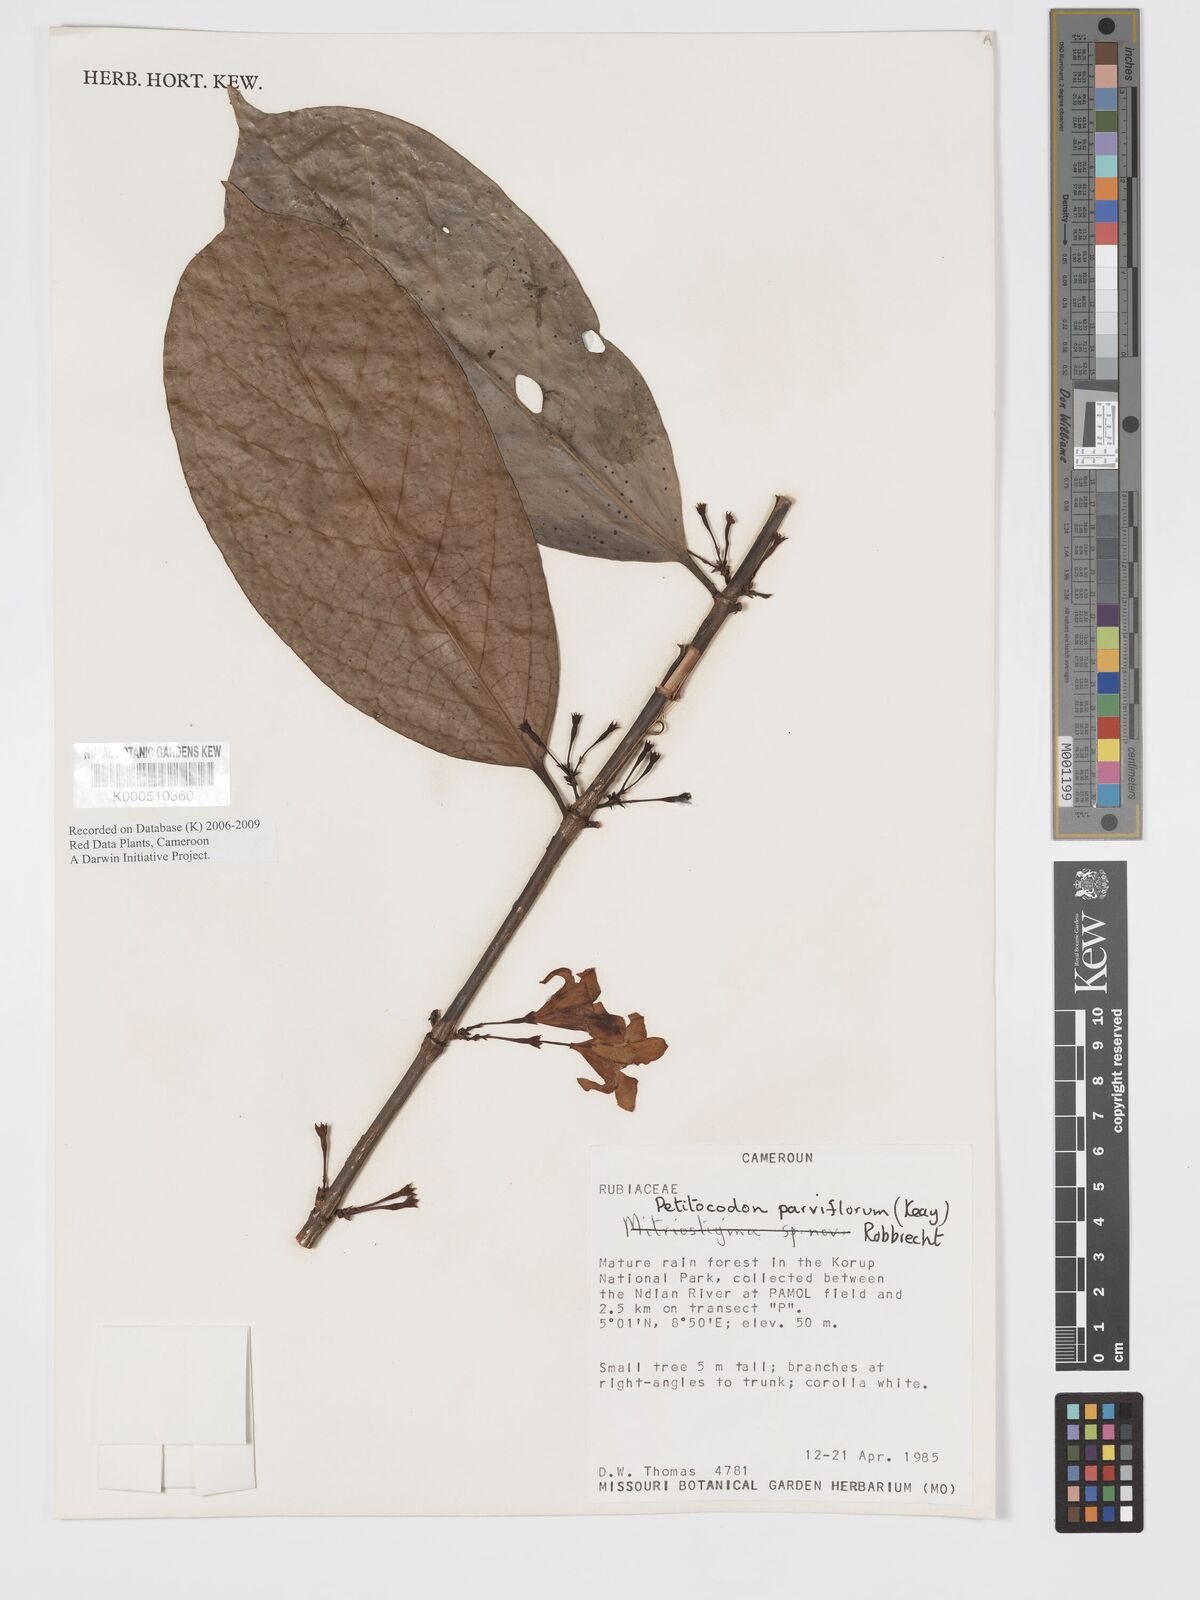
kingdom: Plantae
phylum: Tracheophyta
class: Magnoliopsida
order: Gentianales
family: Rubiaceae
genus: Petitiocodon
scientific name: Petitiocodon parviflorum
